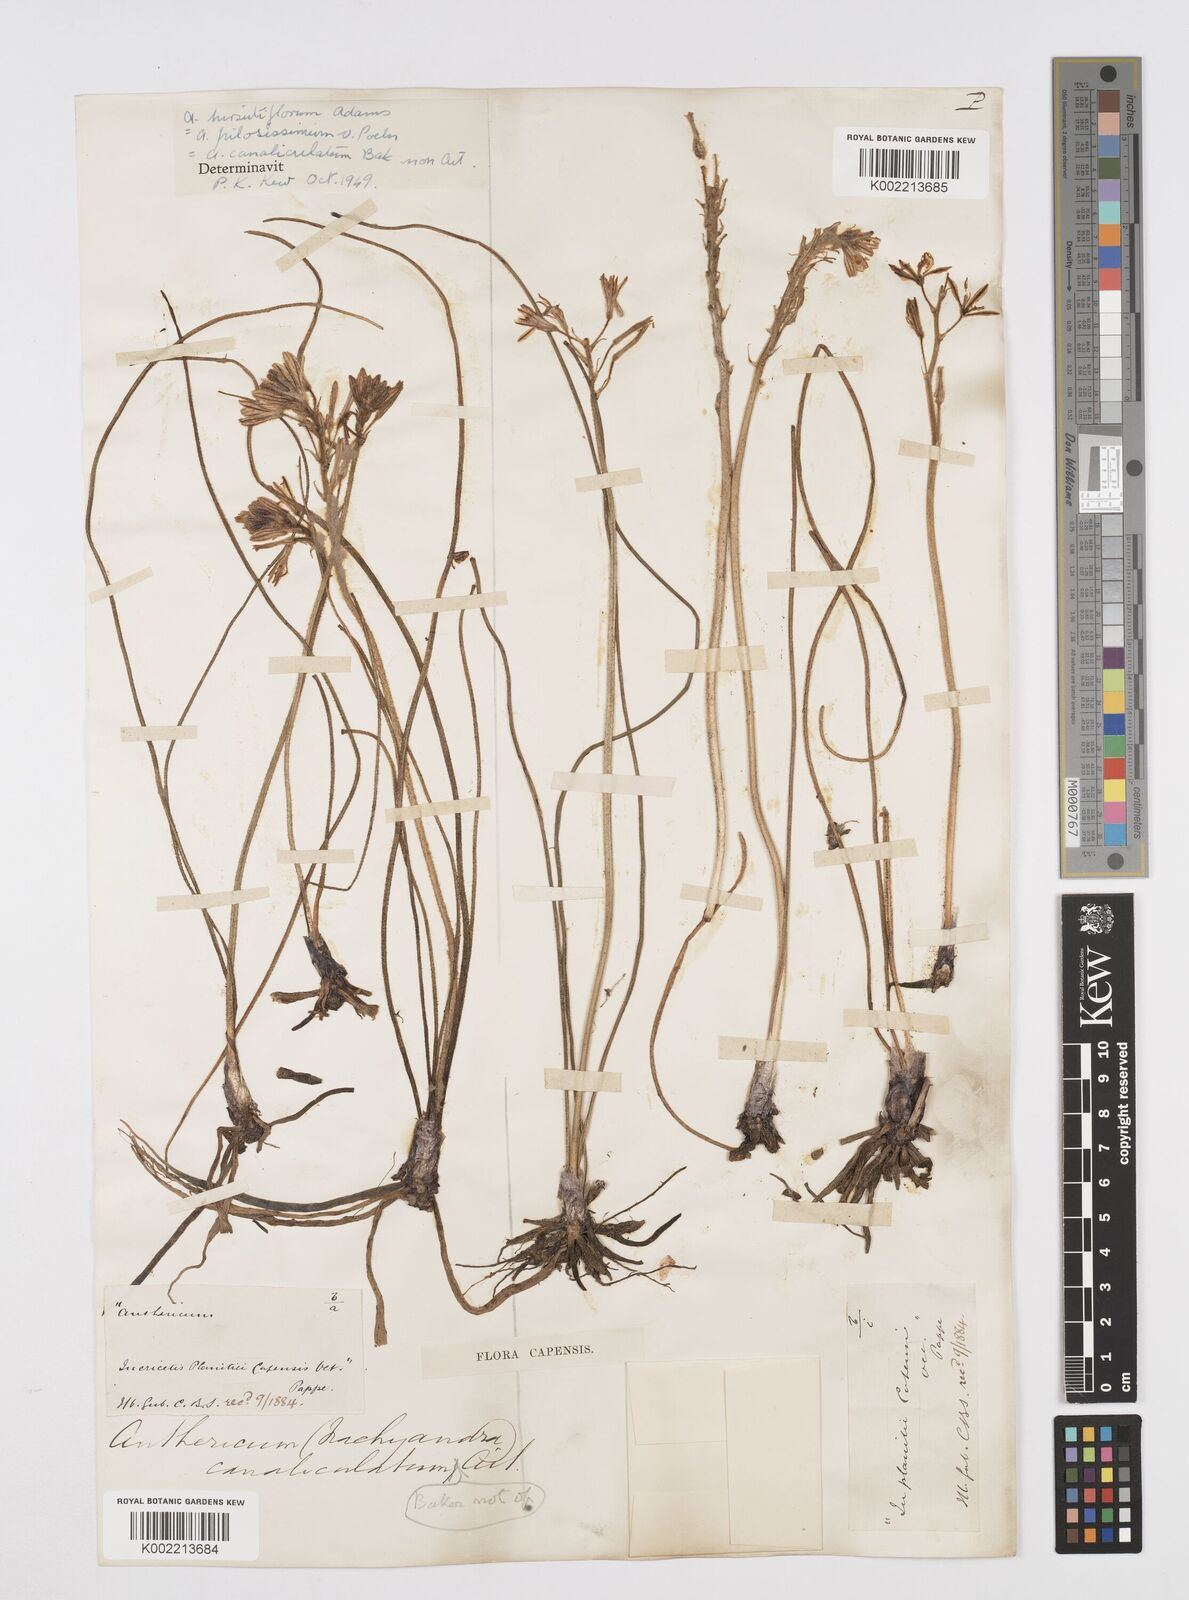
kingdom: Plantae
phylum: Tracheophyta
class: Liliopsida
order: Asparagales
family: Asphodelaceae
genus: Trachyandra
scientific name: Trachyandra hirsutiflora
